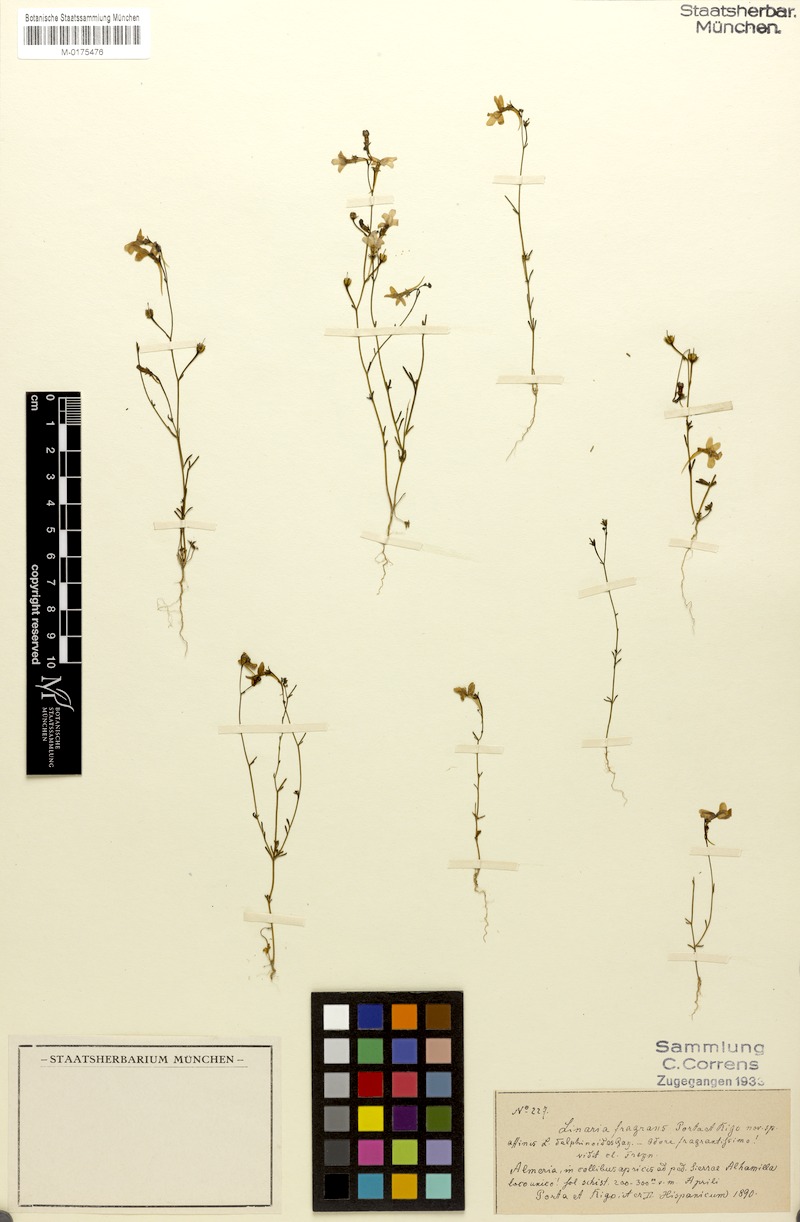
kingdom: Plantae
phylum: Tracheophyta
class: Magnoliopsida
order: Lamiales
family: Plantaginaceae
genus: Linaria
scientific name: Linaria nigricans
